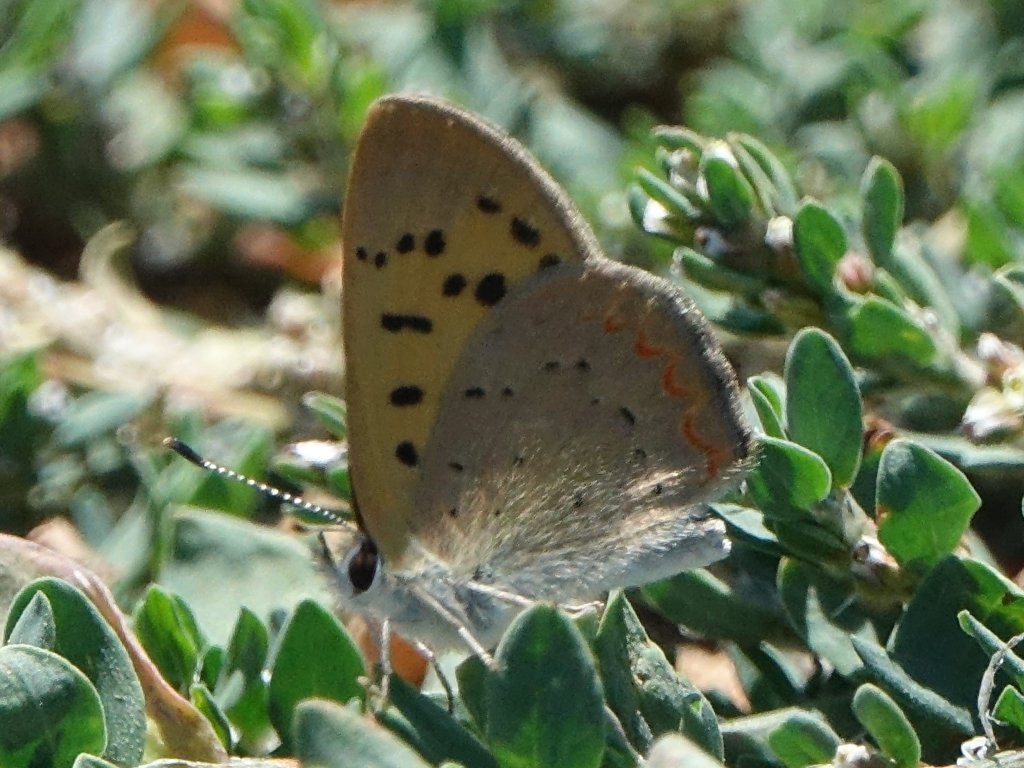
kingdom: Animalia
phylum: Arthropoda
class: Insecta
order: Lepidoptera
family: Sesiidae
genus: Sesia
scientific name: Sesia Lycaena helloides
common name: Purplish Copper
